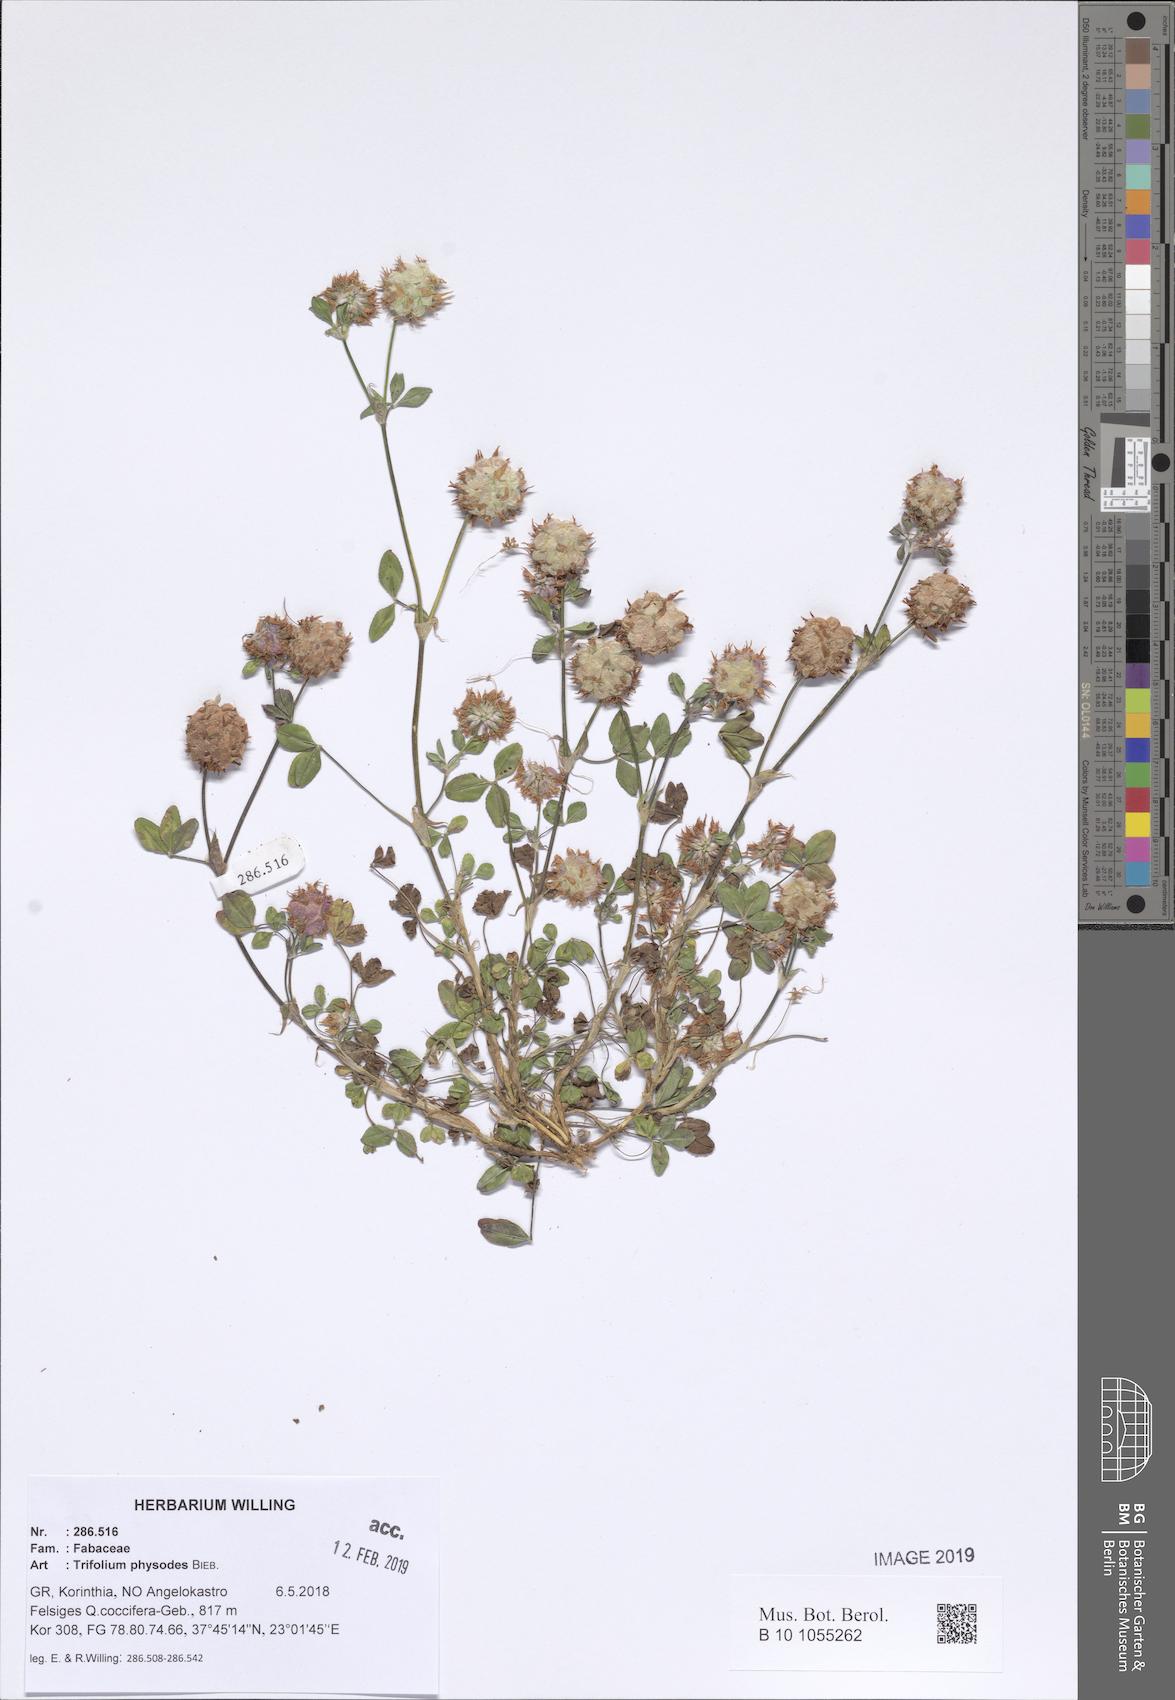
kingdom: Plantae
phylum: Tracheophyta
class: Magnoliopsida
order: Fabales
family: Fabaceae
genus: Trifolium
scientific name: Trifolium physodes
